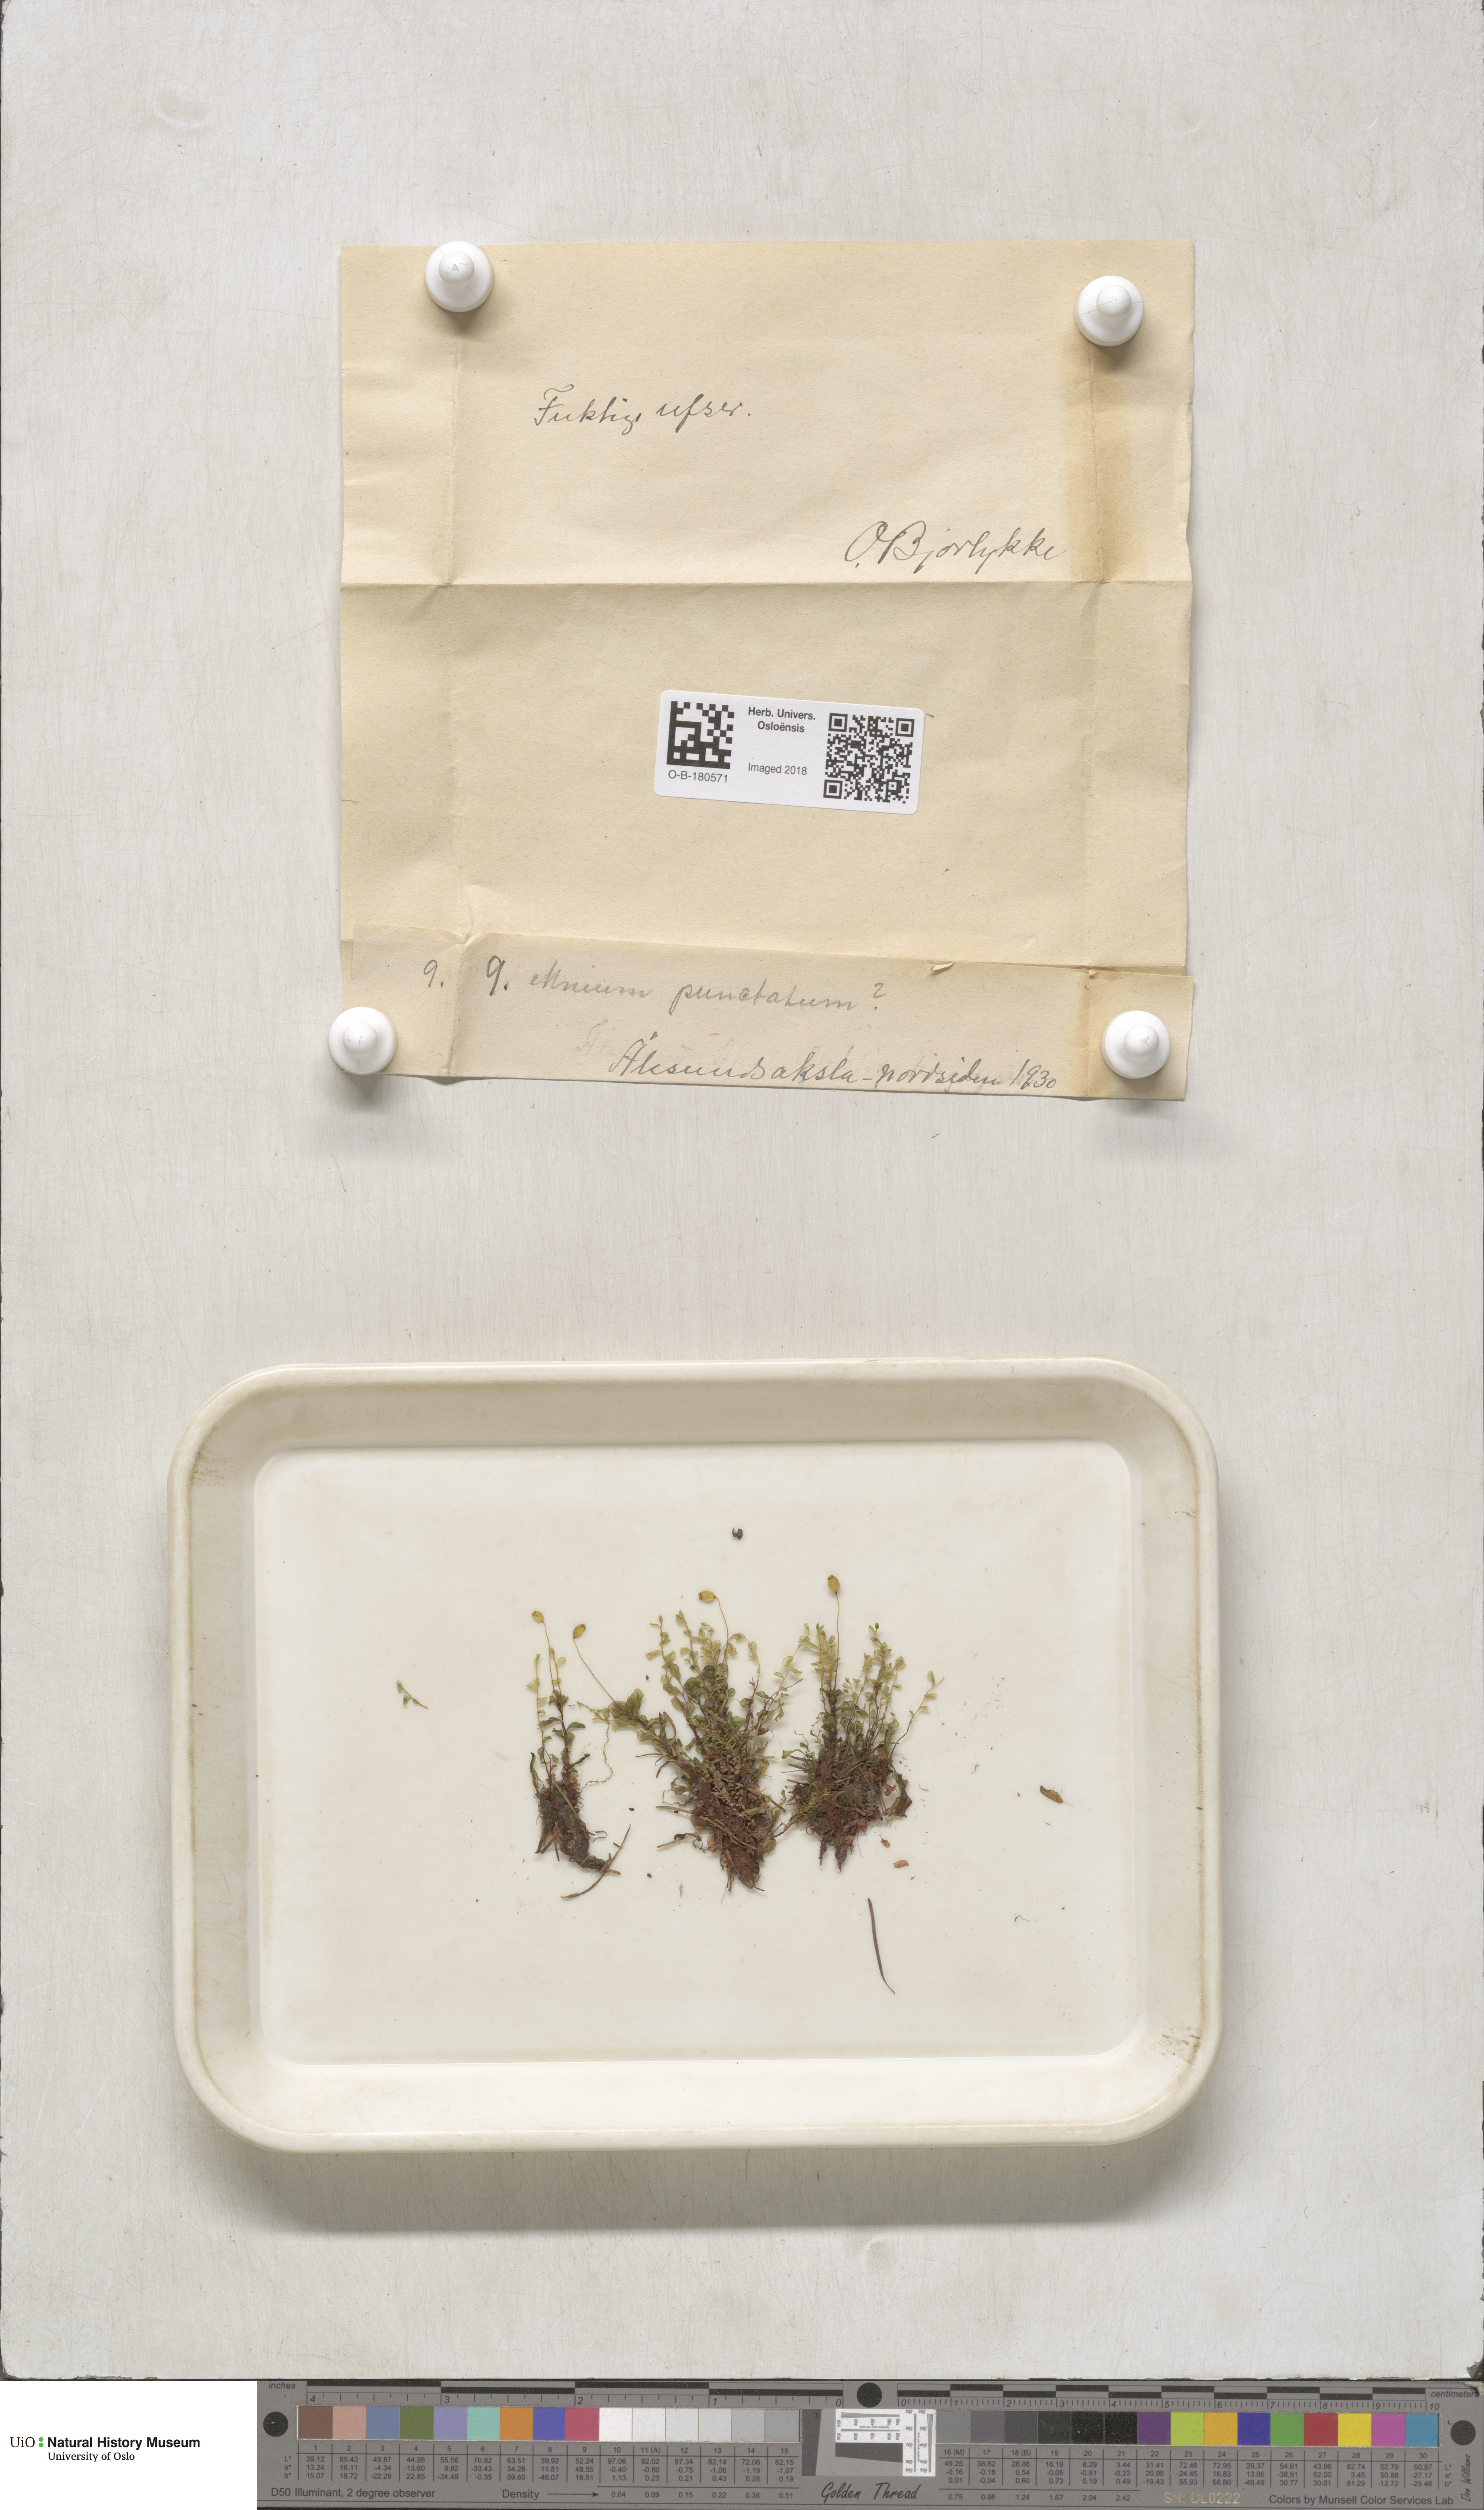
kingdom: Plantae
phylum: Bryophyta
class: Bryopsida
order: Bryales
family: Mniaceae
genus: Rhizomnium
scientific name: Rhizomnium punctatum
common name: Dotted leafy moss
